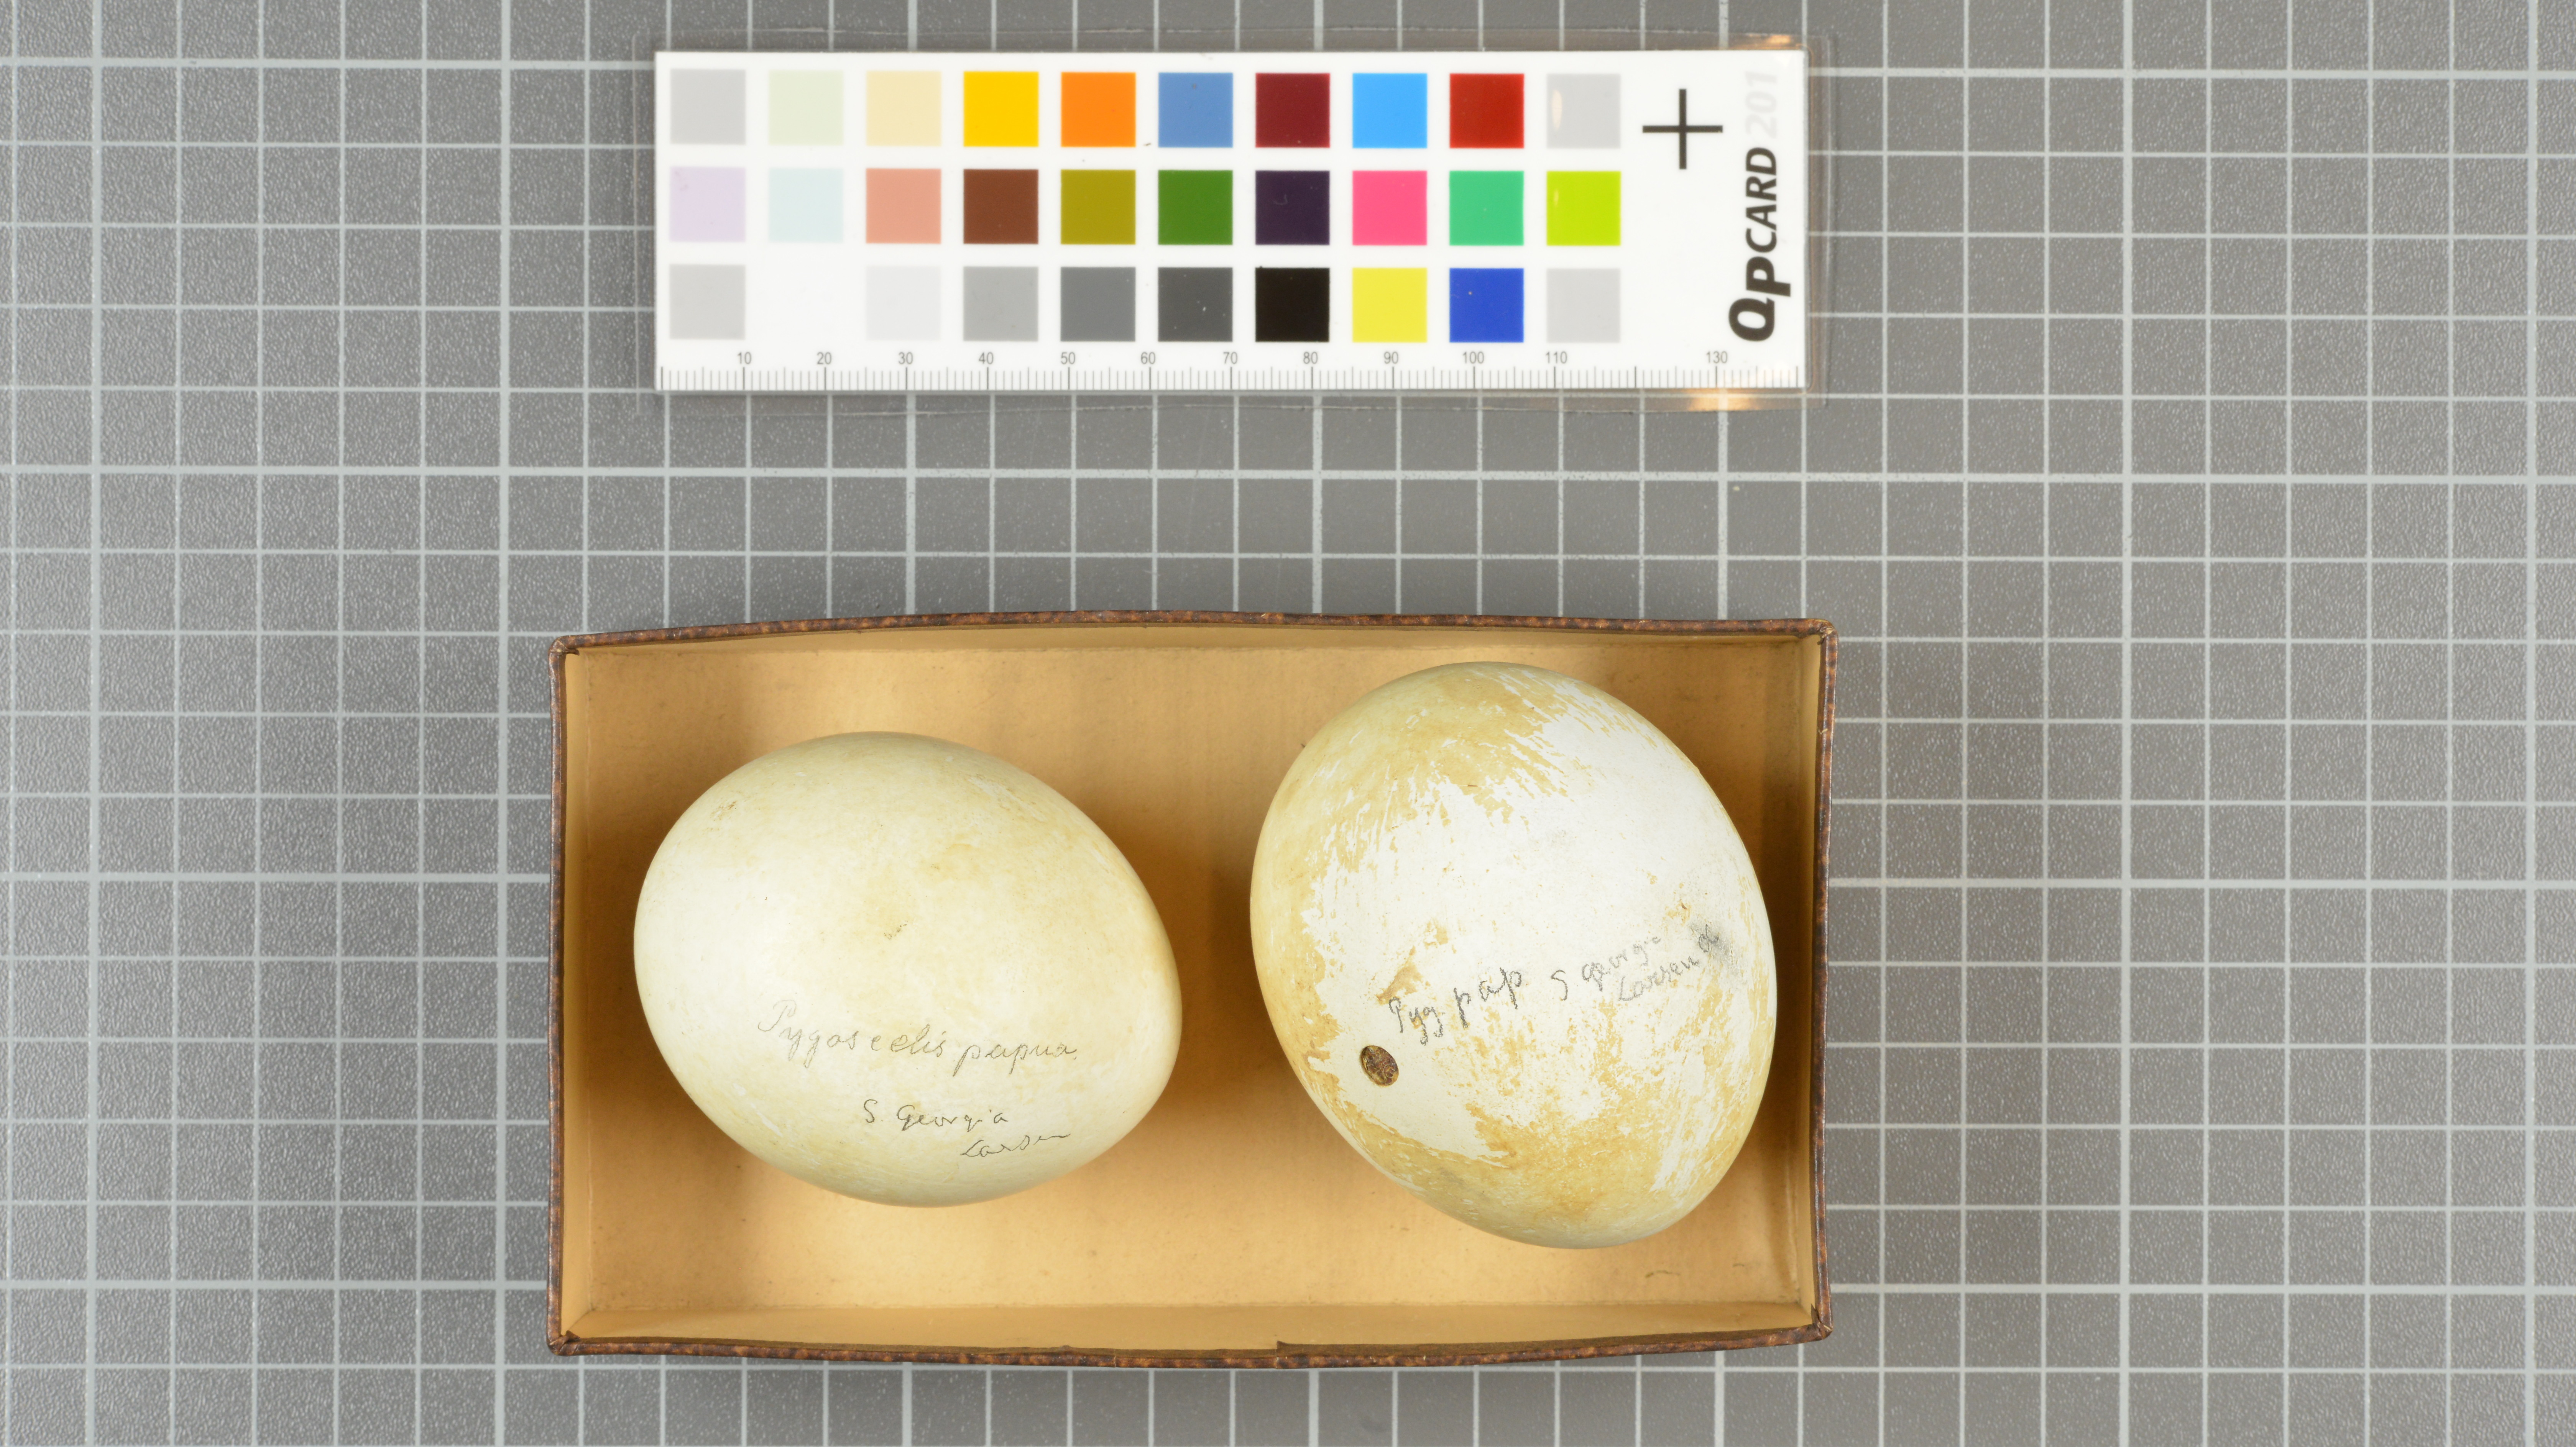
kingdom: Animalia
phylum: Chordata
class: Aves
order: Sphenisciformes
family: Spheniscidae
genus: Pygoscelis
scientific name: Pygoscelis papua
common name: Gentoo penguin
